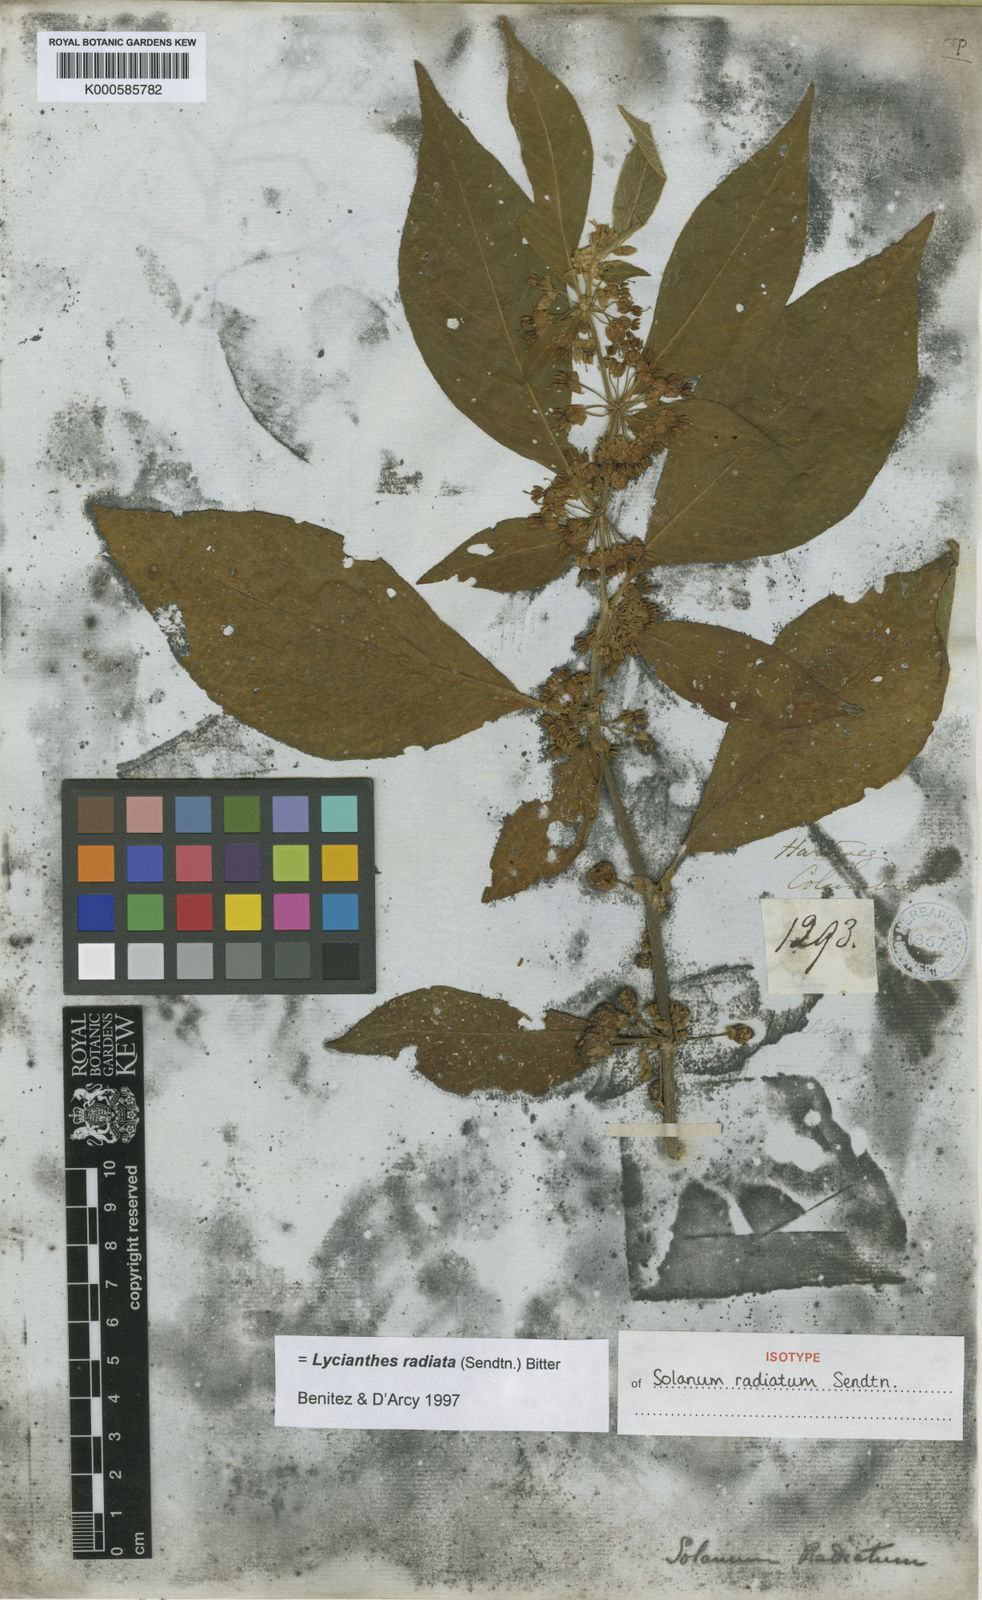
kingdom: Plantae
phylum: Tracheophyta
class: Magnoliopsida
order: Solanales
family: Solanaceae
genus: Lycianthes
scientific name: Lycianthes radiata
